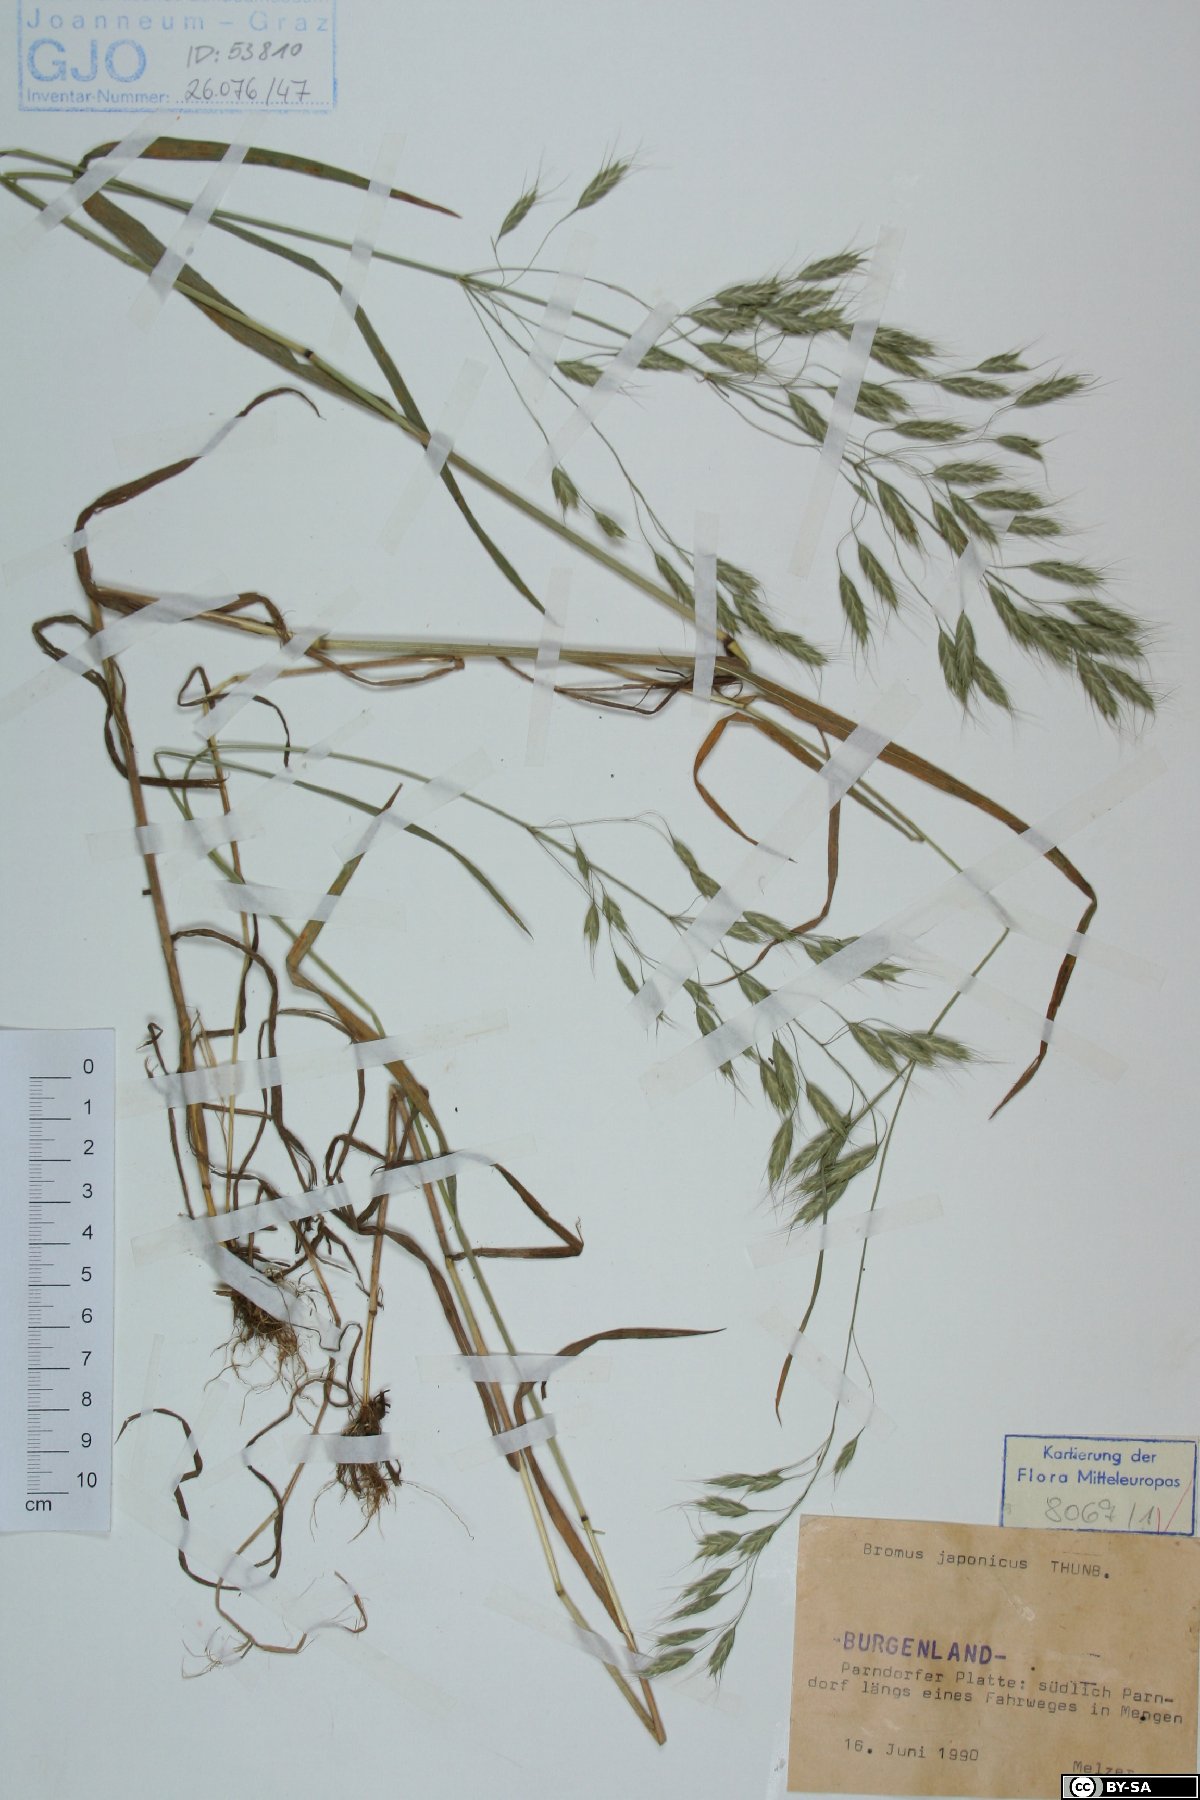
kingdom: Plantae
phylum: Tracheophyta
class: Liliopsida
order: Poales
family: Poaceae
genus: Bromus
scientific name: Bromus japonicus
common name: Japanese brome
